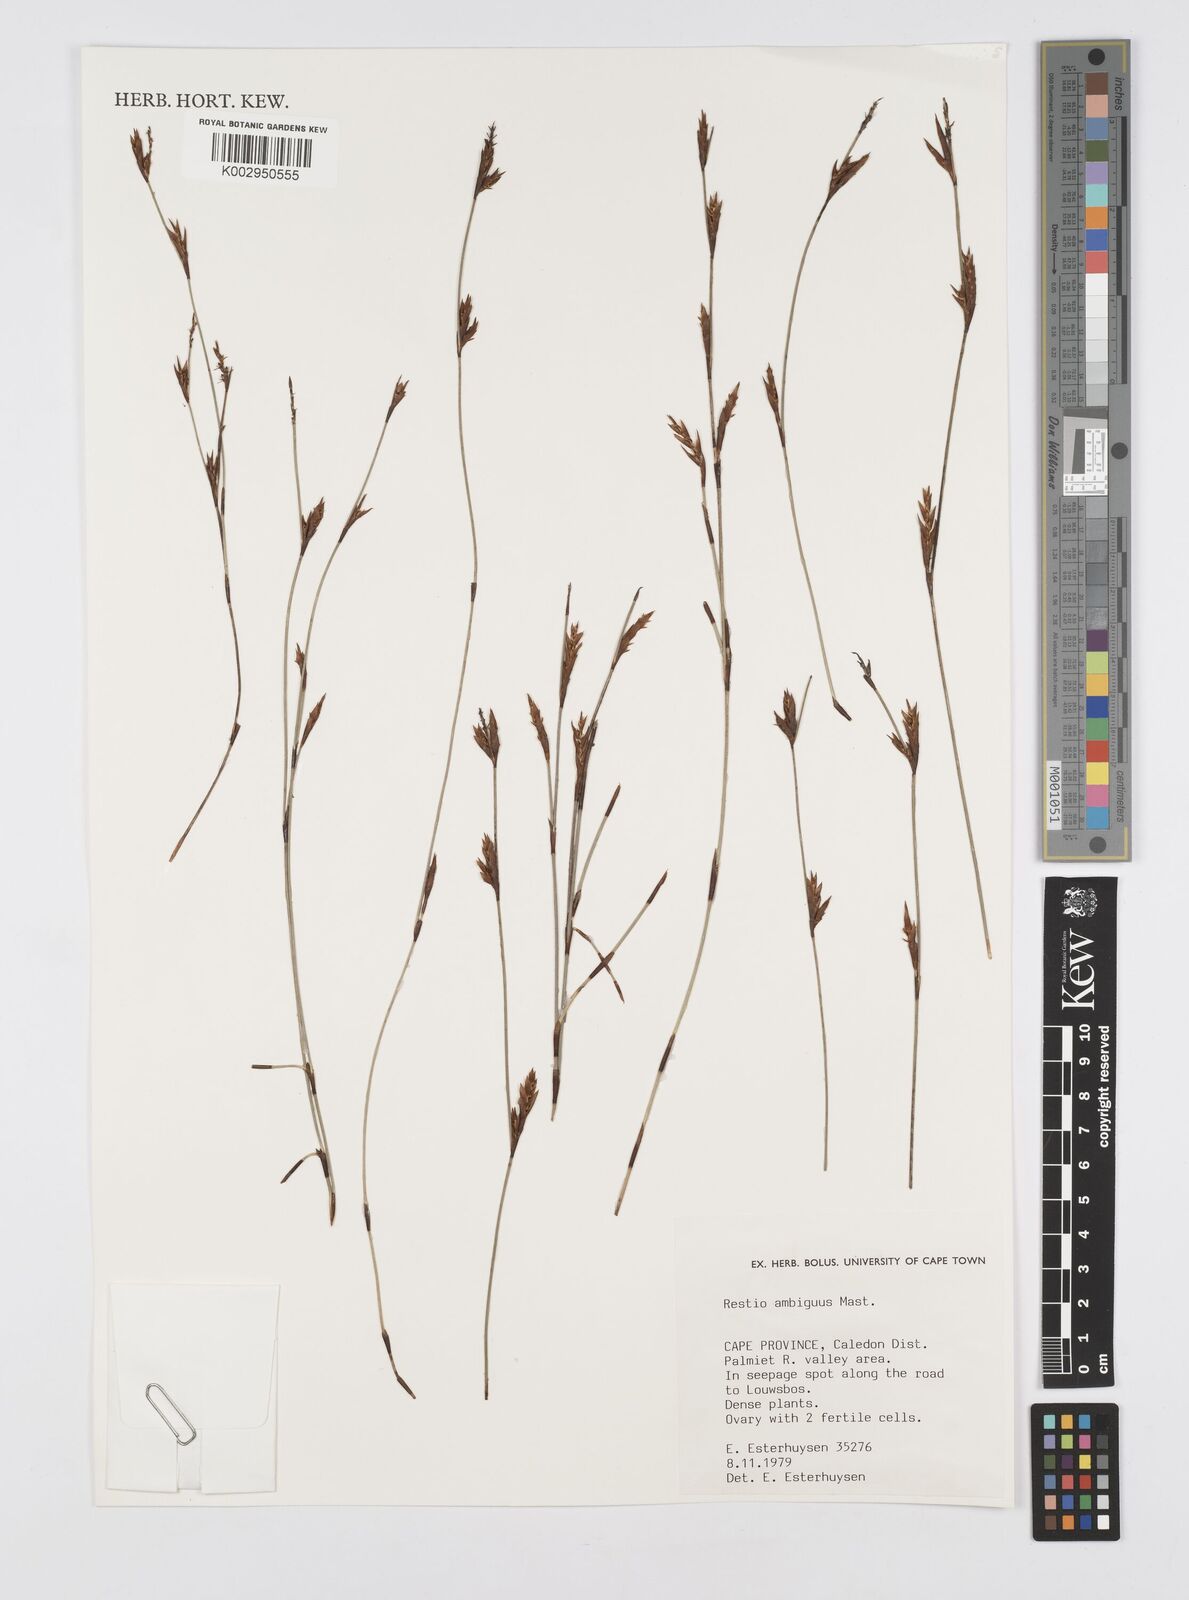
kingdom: Plantae
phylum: Tracheophyta
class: Liliopsida
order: Poales
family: Restionaceae
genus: Soroveta
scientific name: Soroveta ambigua
